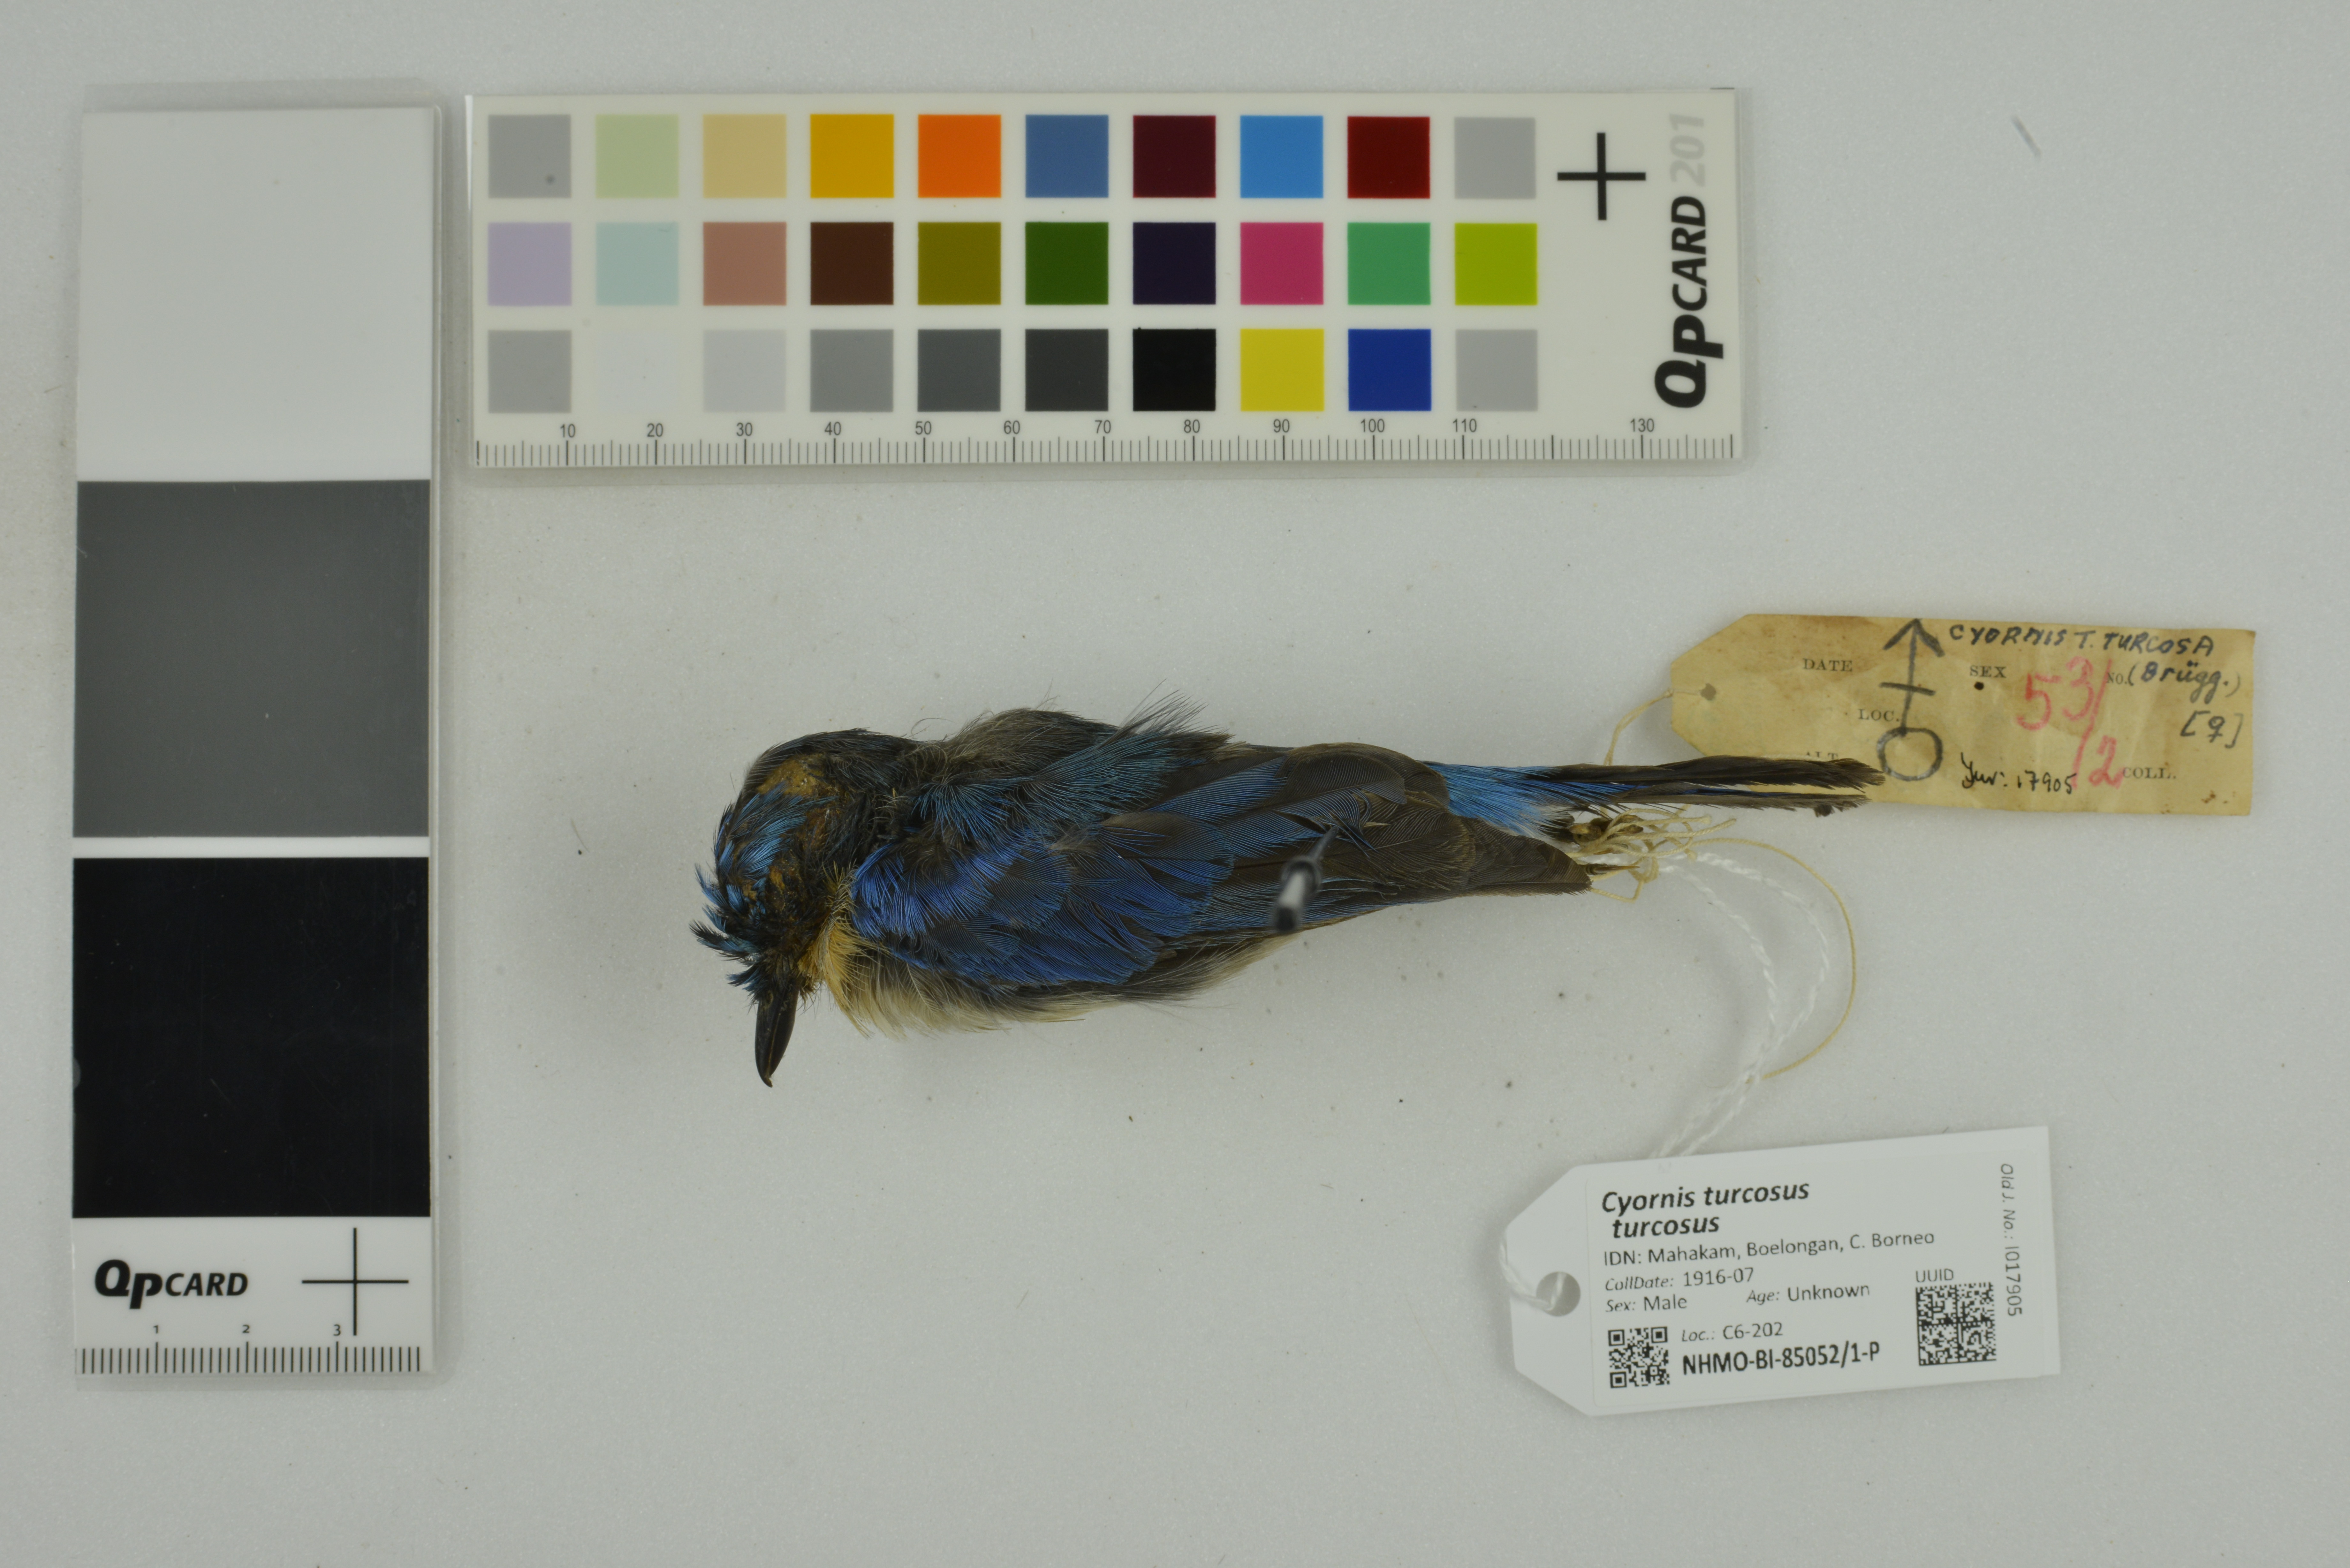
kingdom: Animalia
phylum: Chordata
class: Aves
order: Passeriformes
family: Muscicapidae
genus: Cyornis
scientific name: Cyornis turcosus
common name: Malaysian blue flycatcher
